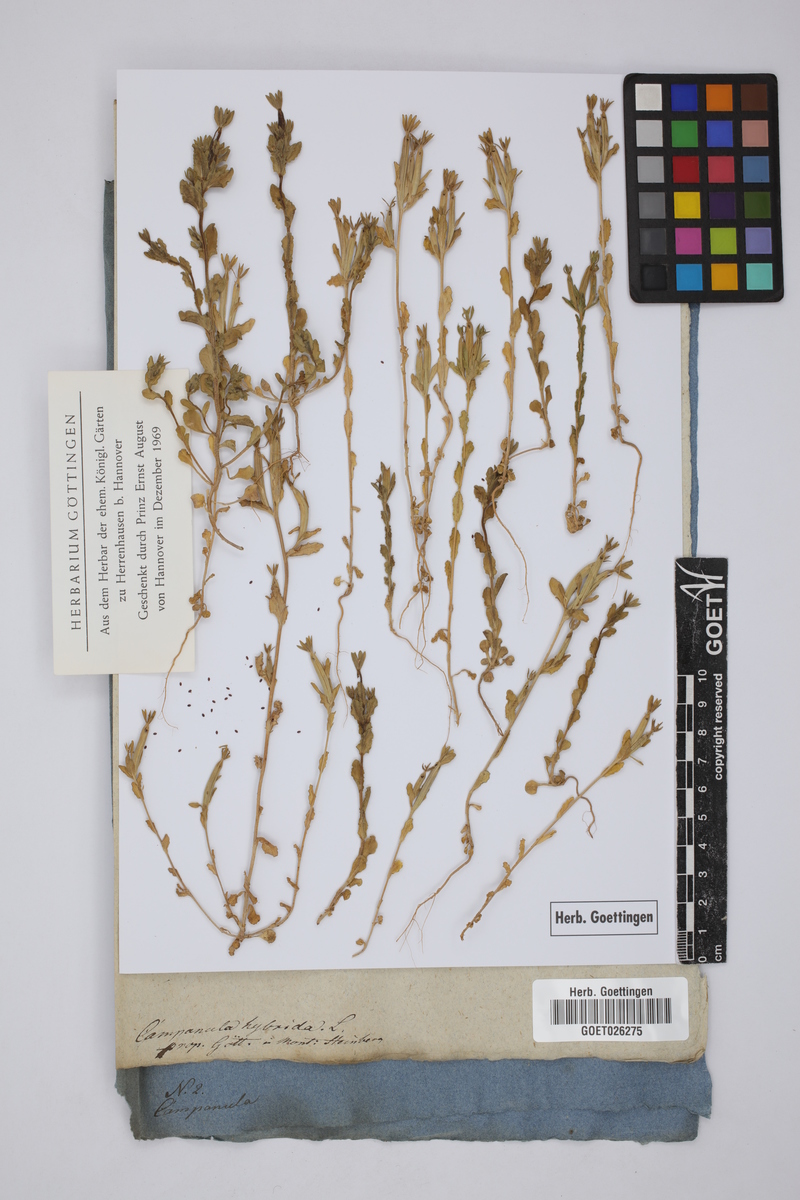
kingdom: Plantae
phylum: Tracheophyta
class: Magnoliopsida
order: Asterales
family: Campanulaceae
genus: Legousia
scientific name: Legousia hybrida
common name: Venus's-looking-glass
